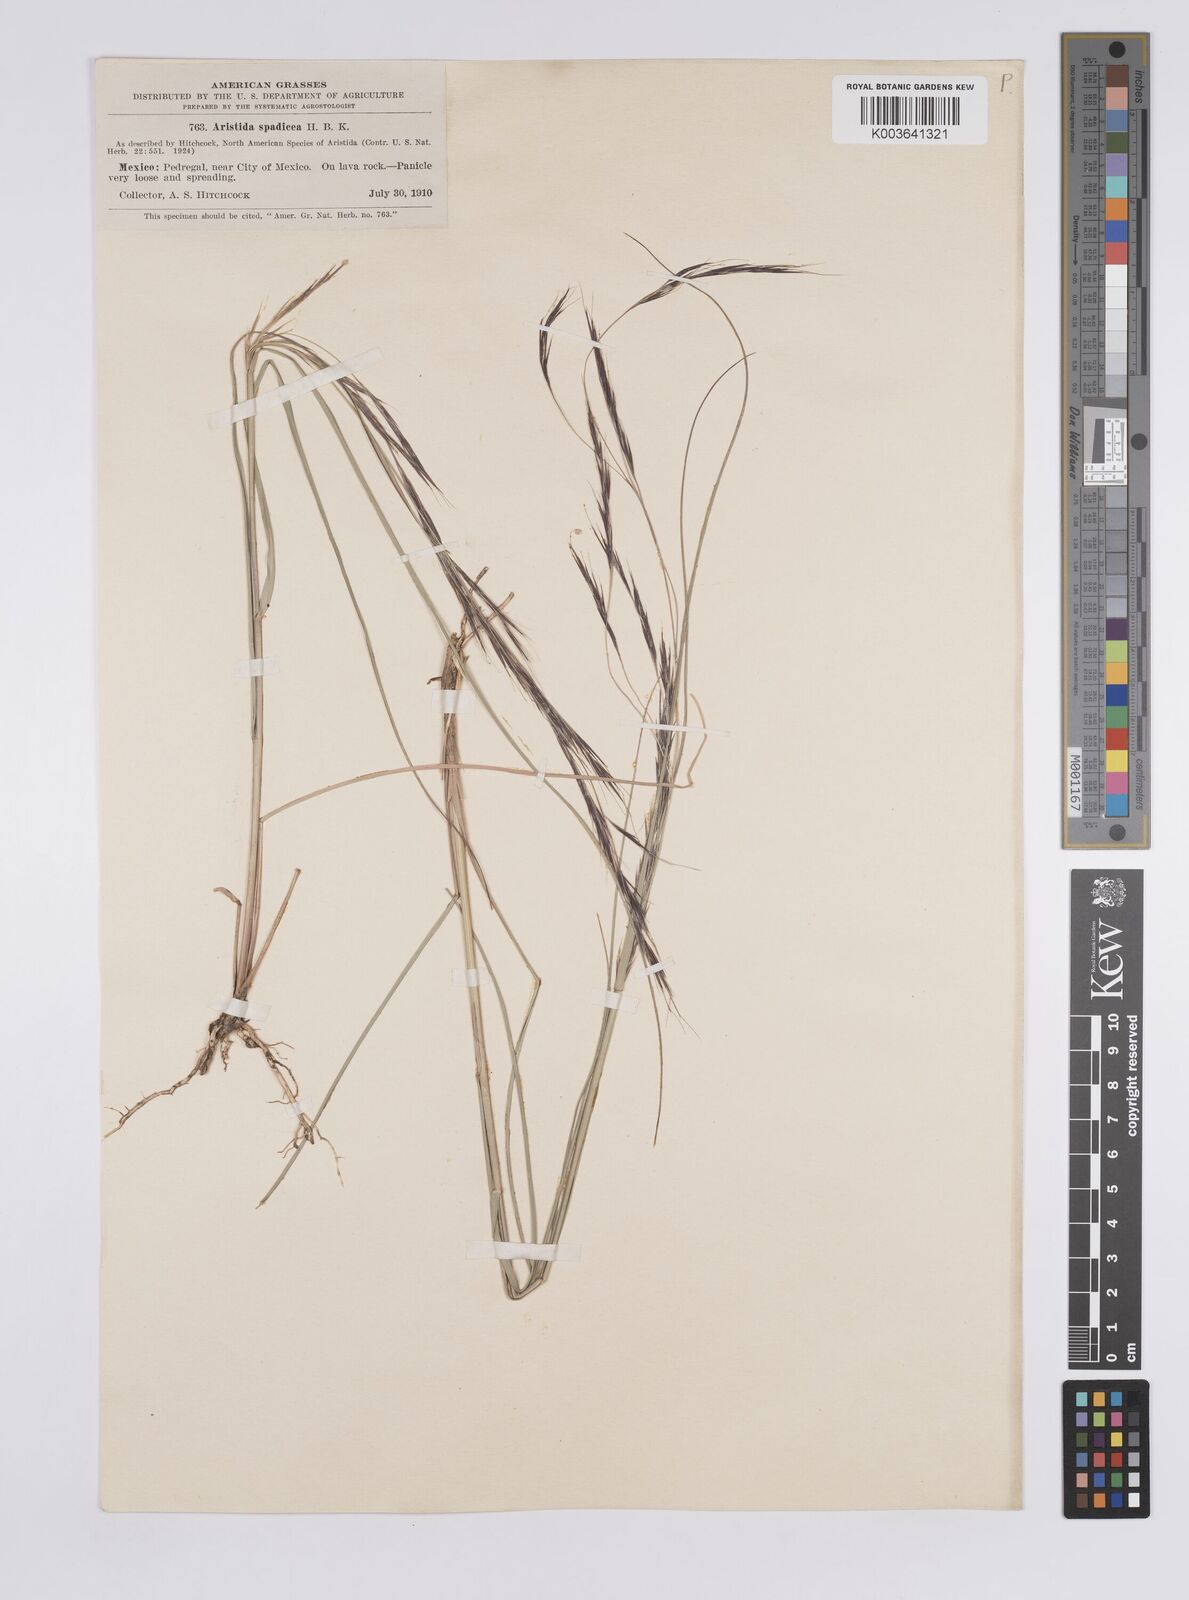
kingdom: Plantae
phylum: Tracheophyta
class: Liliopsida
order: Poales
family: Poaceae
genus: Aristida
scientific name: Aristida laxa
